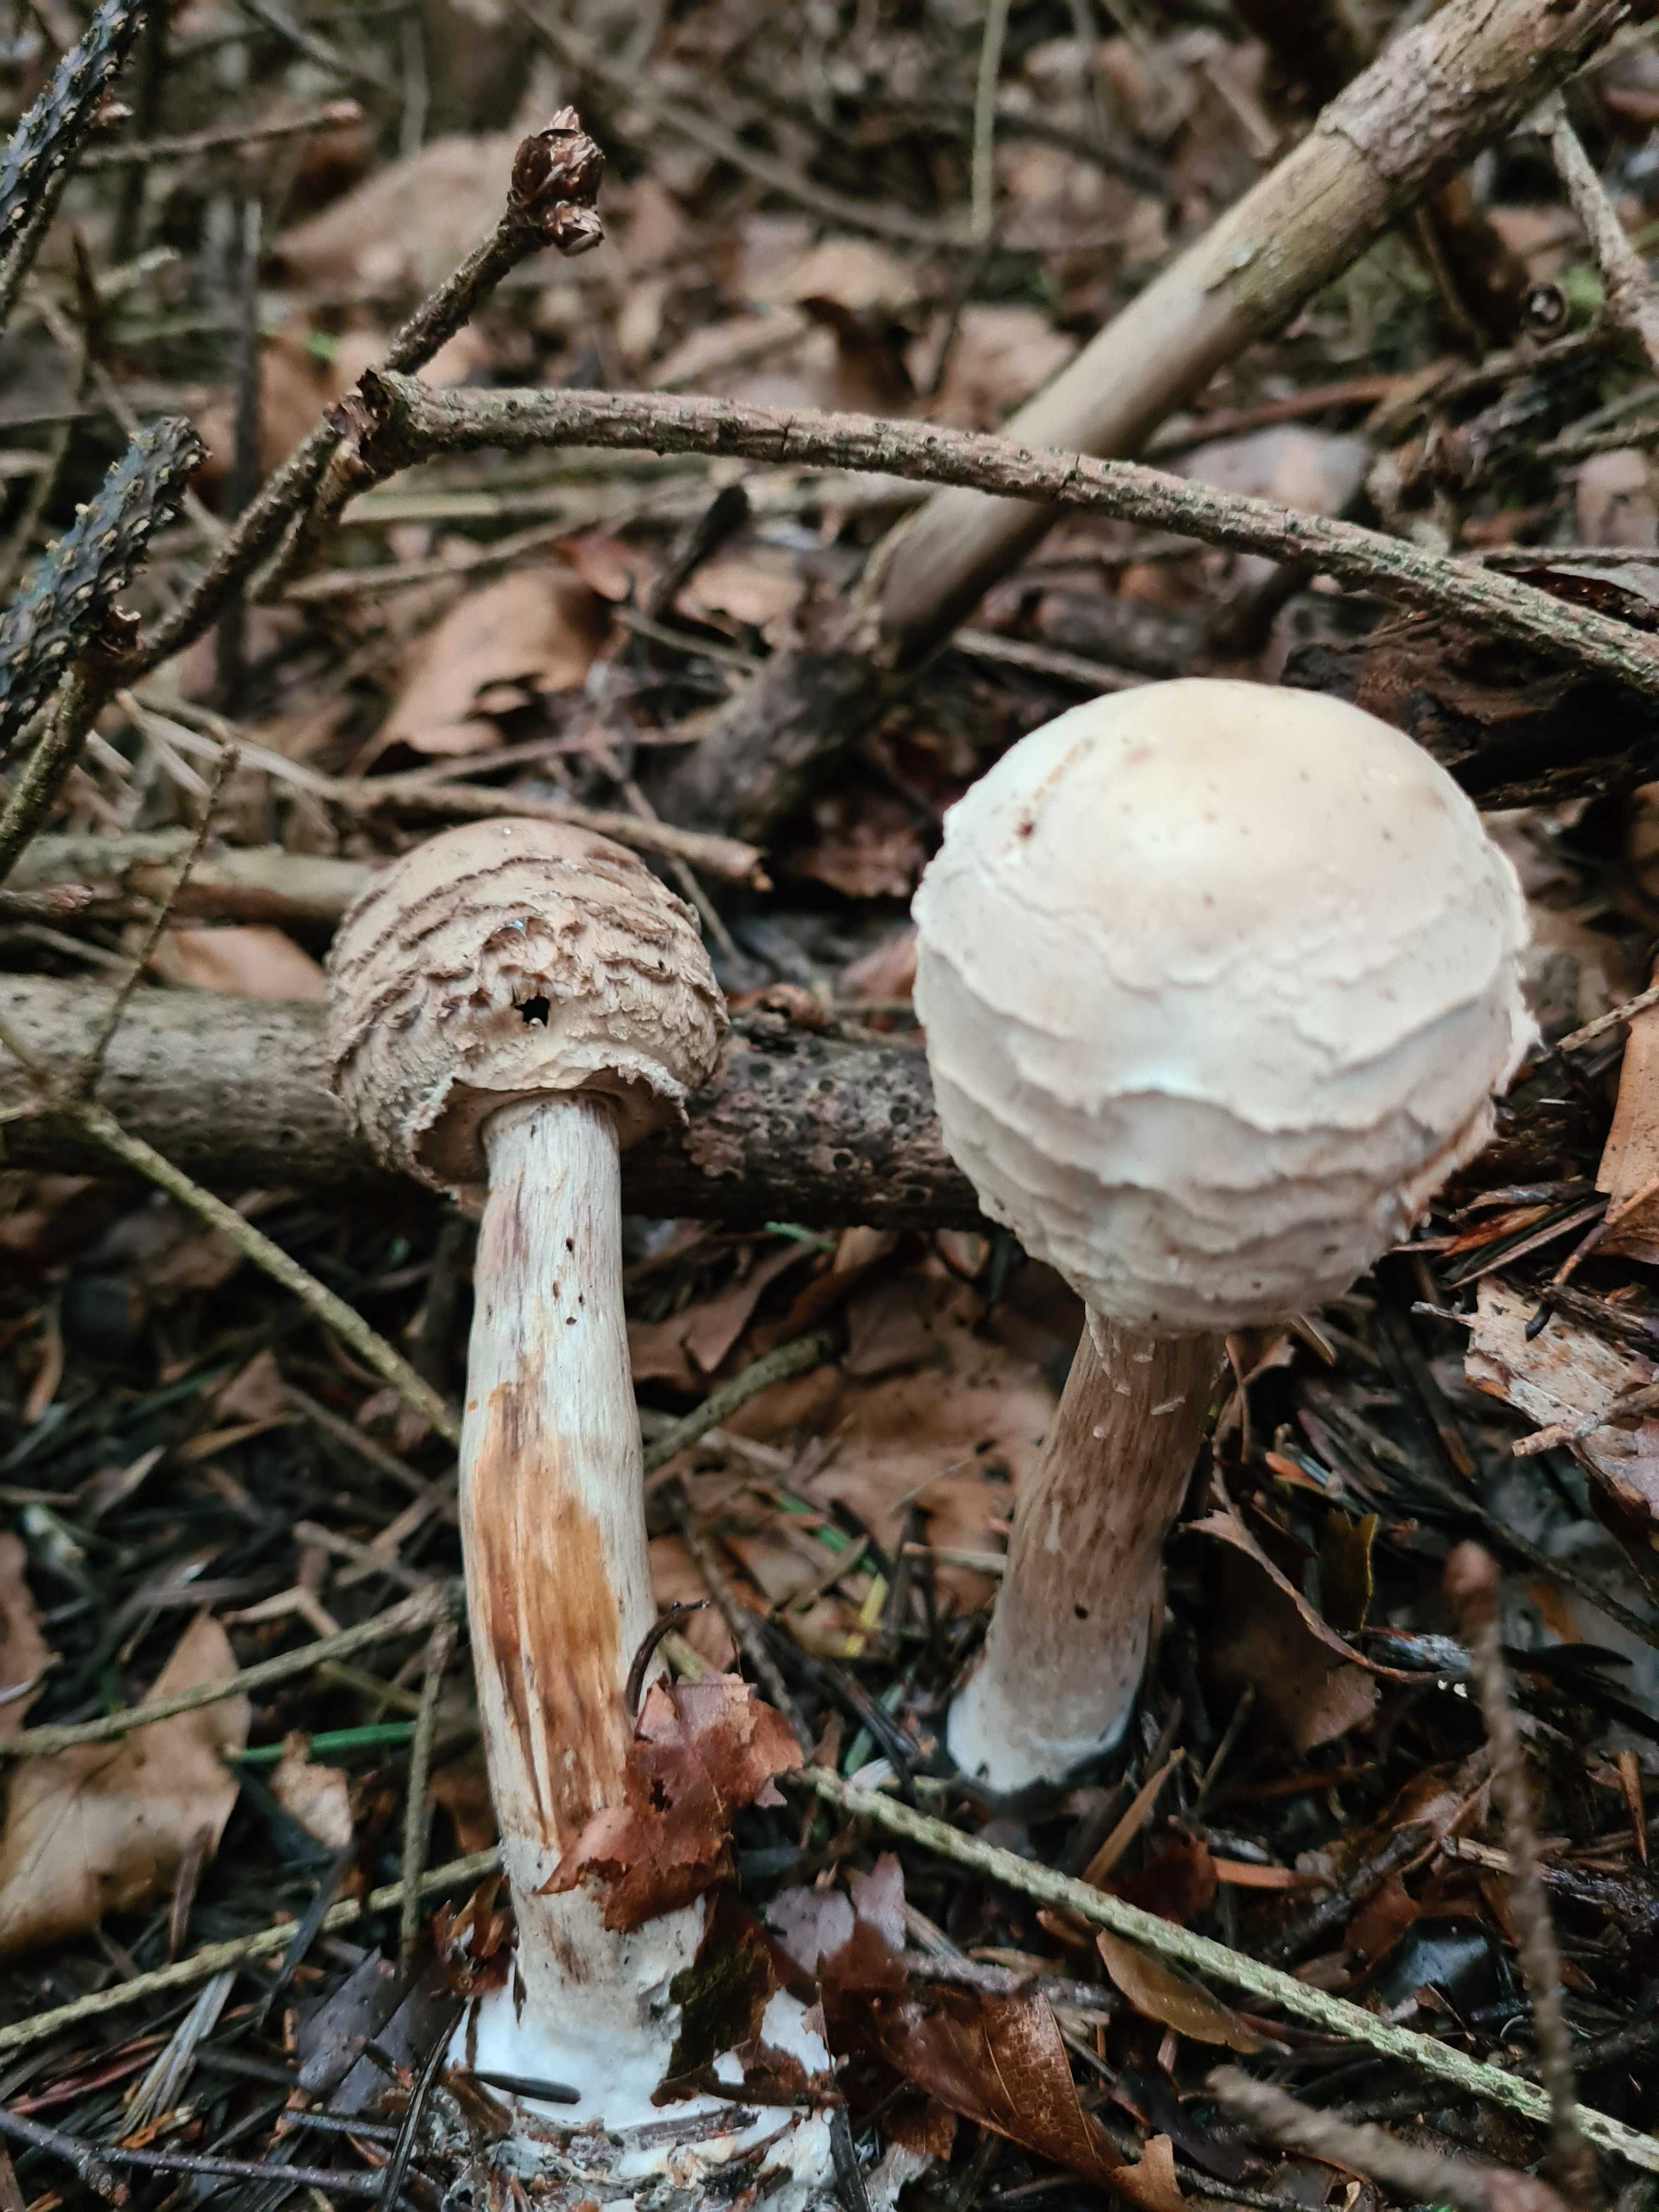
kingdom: Fungi
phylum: Basidiomycota
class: Agaricomycetes
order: Agaricales
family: Agaricaceae
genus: Chlorophyllum
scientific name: Chlorophyllum olivieri
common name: almindelig rabarberhat
